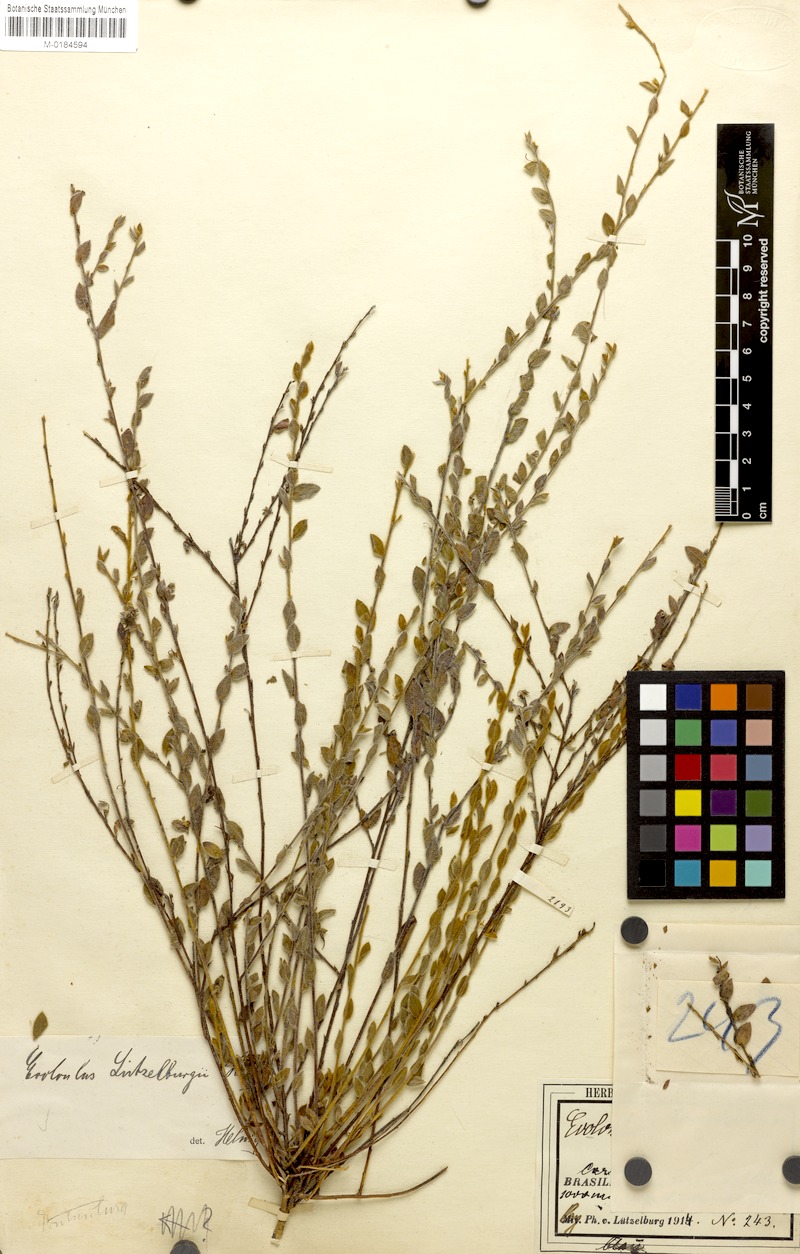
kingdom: Plantae
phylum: Tracheophyta
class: Magnoliopsida
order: Solanales
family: Convolvulaceae
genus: Evolvulus
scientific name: Evolvulus luetzelburgii
